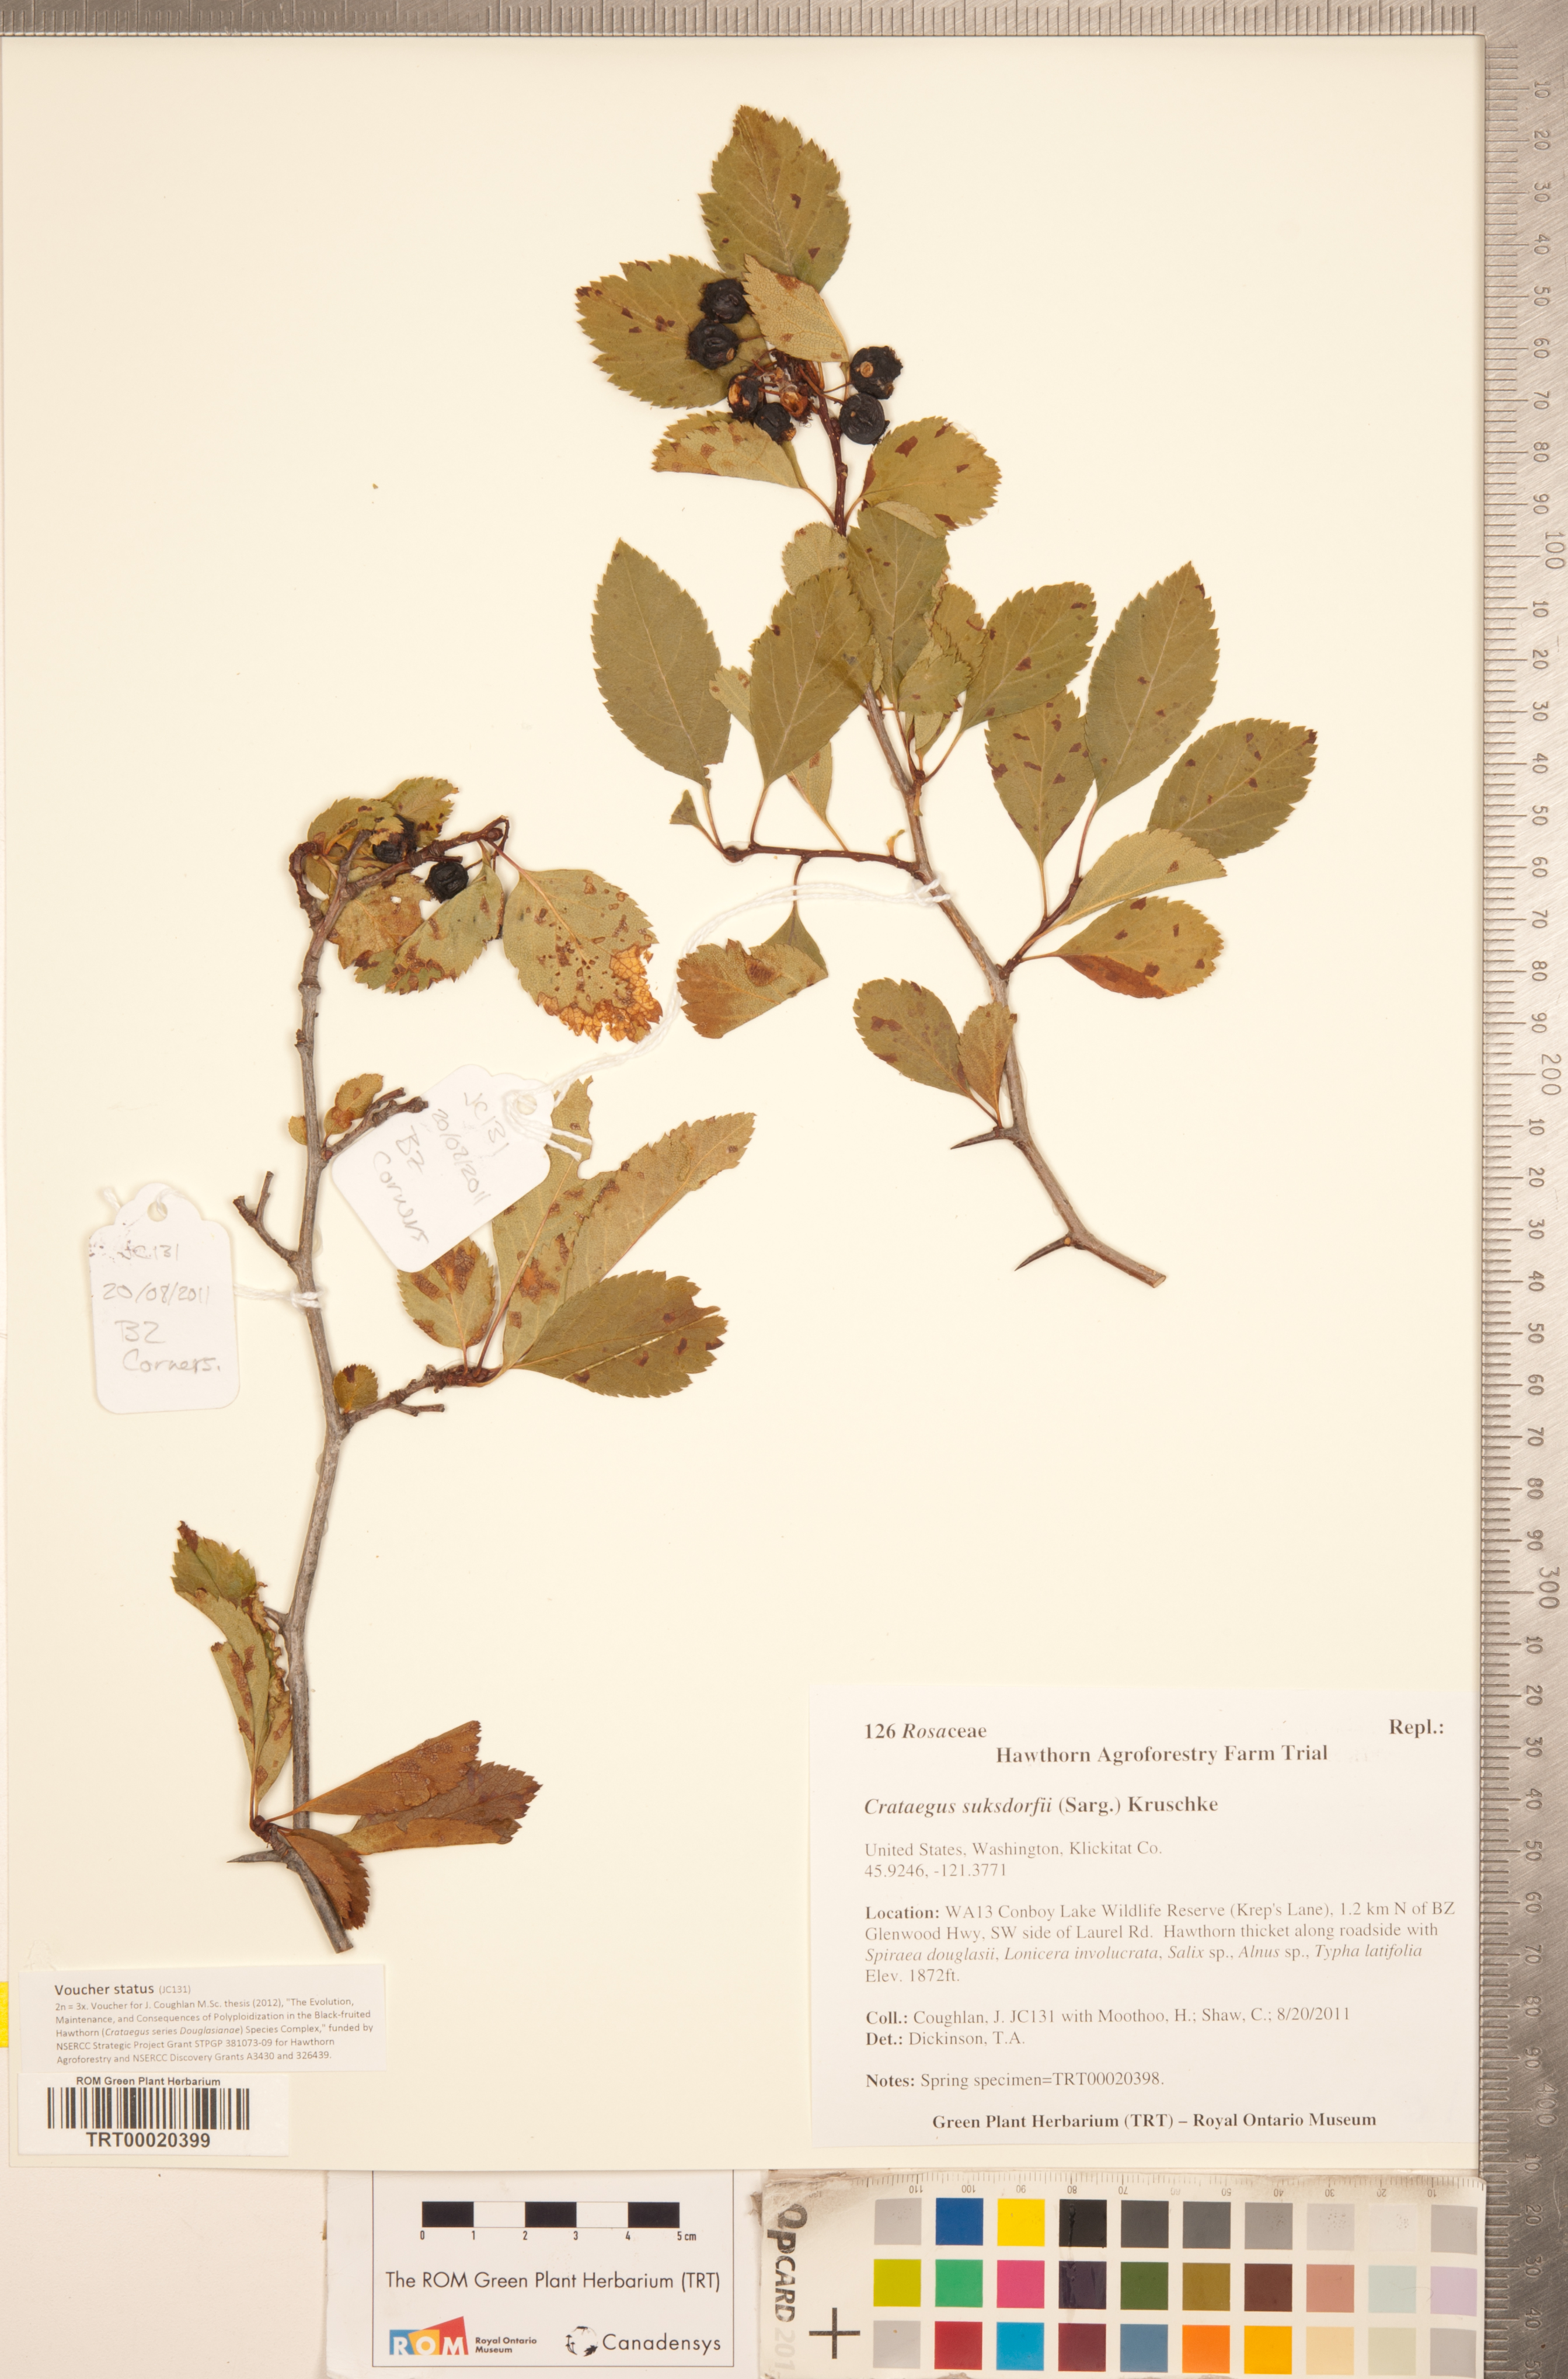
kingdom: Plantae
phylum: Tracheophyta
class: Magnoliopsida
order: Rosales
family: Rosaceae
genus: Crataegus
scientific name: Crataegus gaylussacia
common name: Huckleberry hawthorn
